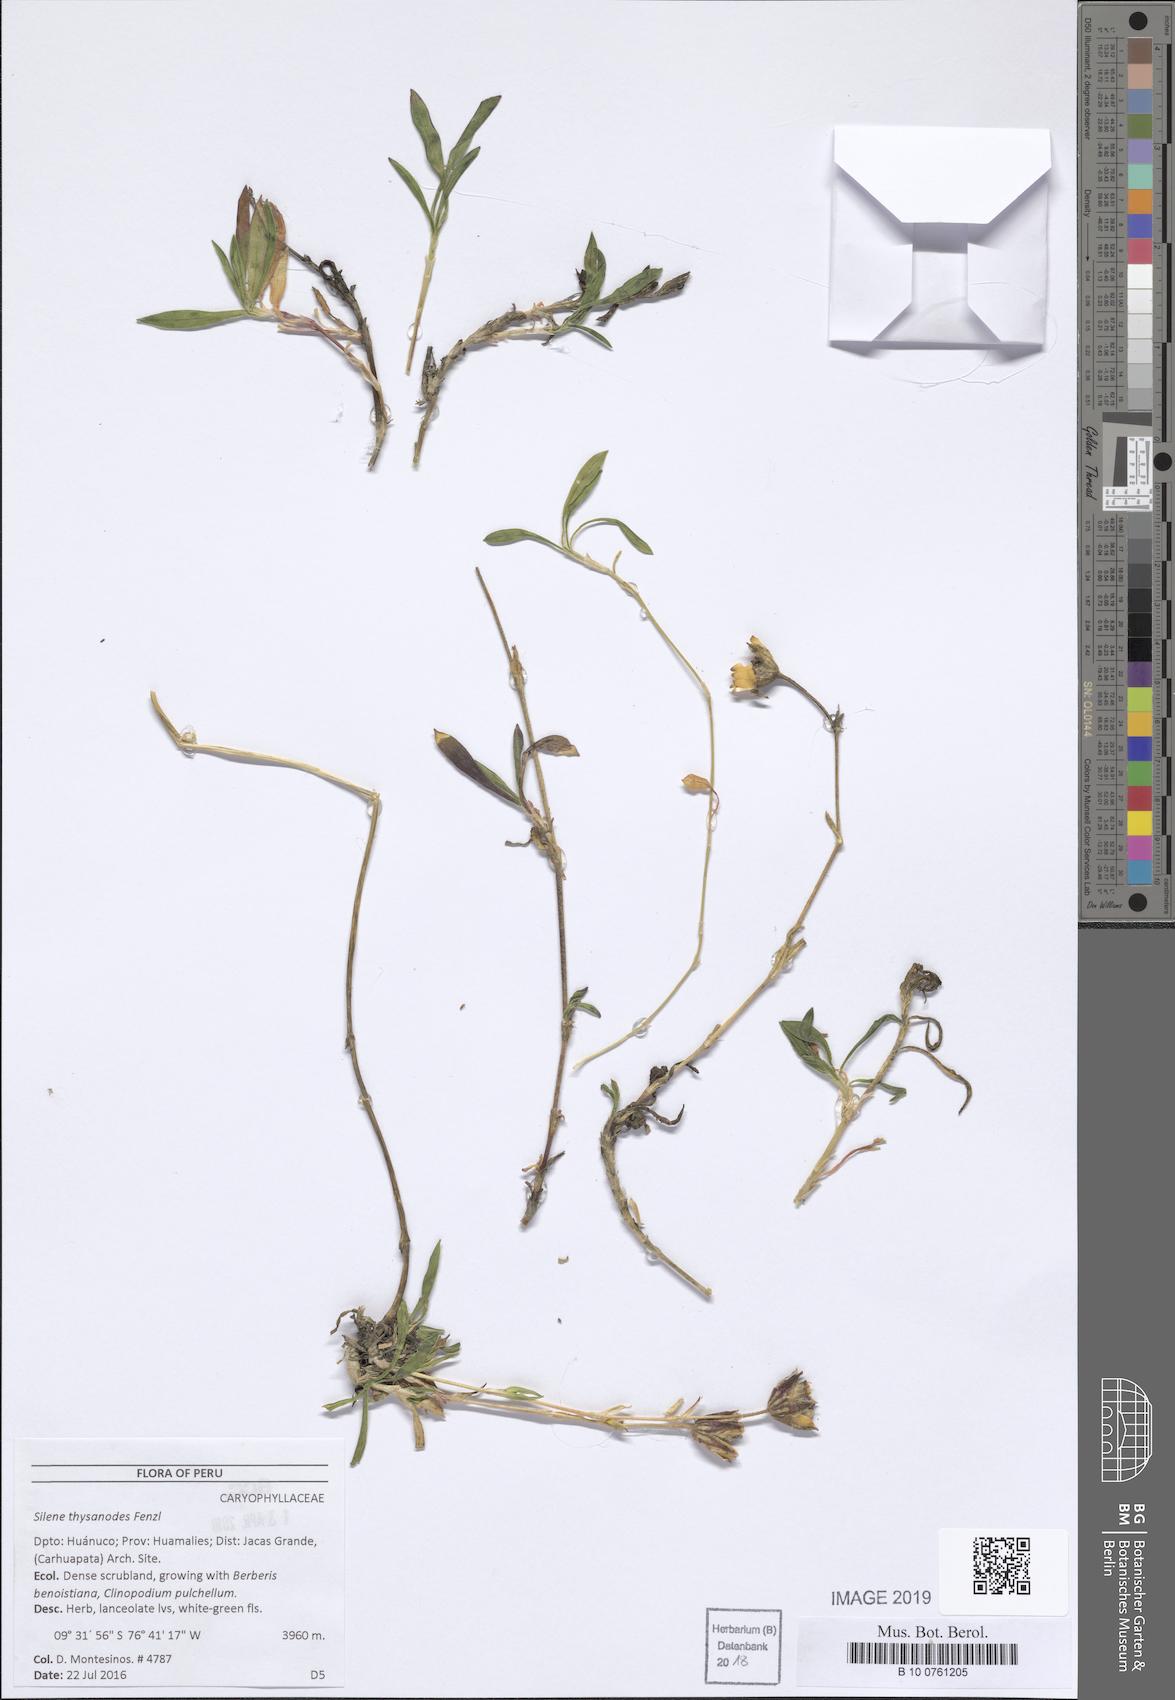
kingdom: Plantae
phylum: Tracheophyta
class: Magnoliopsida
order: Caryophyllales
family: Caryophyllaceae
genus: Silene
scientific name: Silene thysanodes
